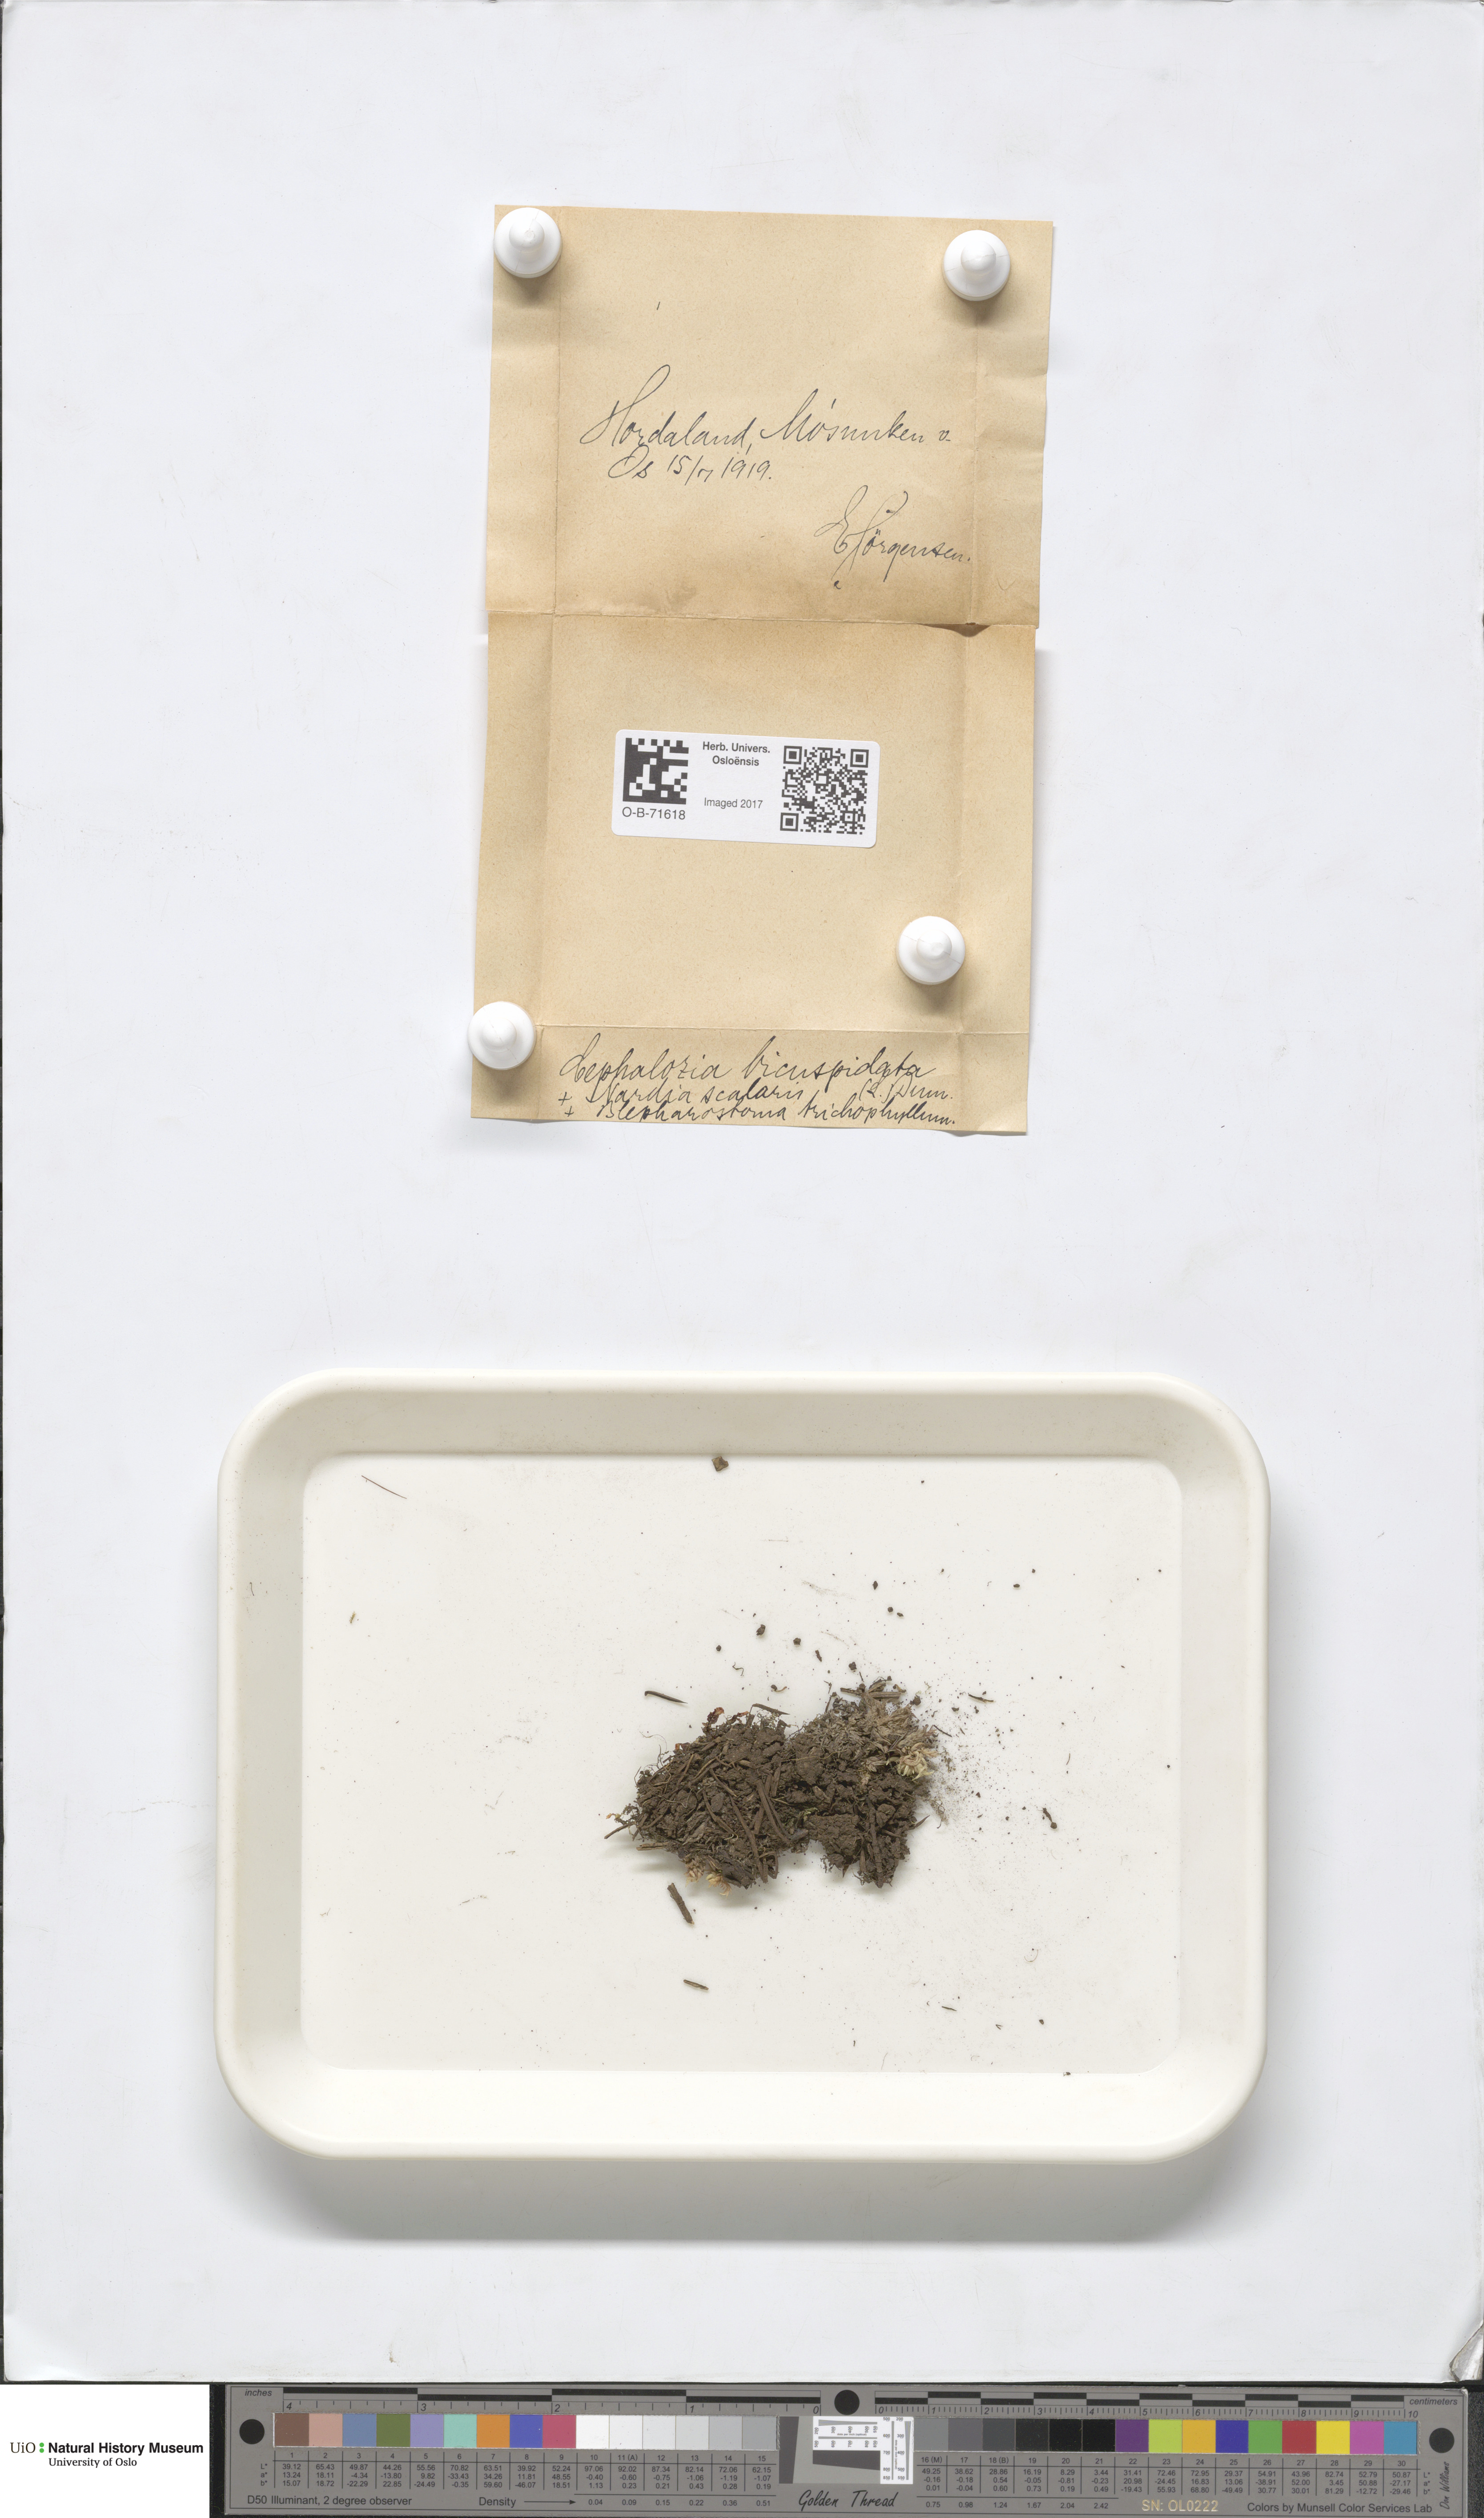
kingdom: Plantae
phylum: Marchantiophyta
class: Jungermanniopsida
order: Jungermanniales
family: Cephaloziaceae
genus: Cephalozia
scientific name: Cephalozia bicuspidata
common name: Two-horned pincerwort
